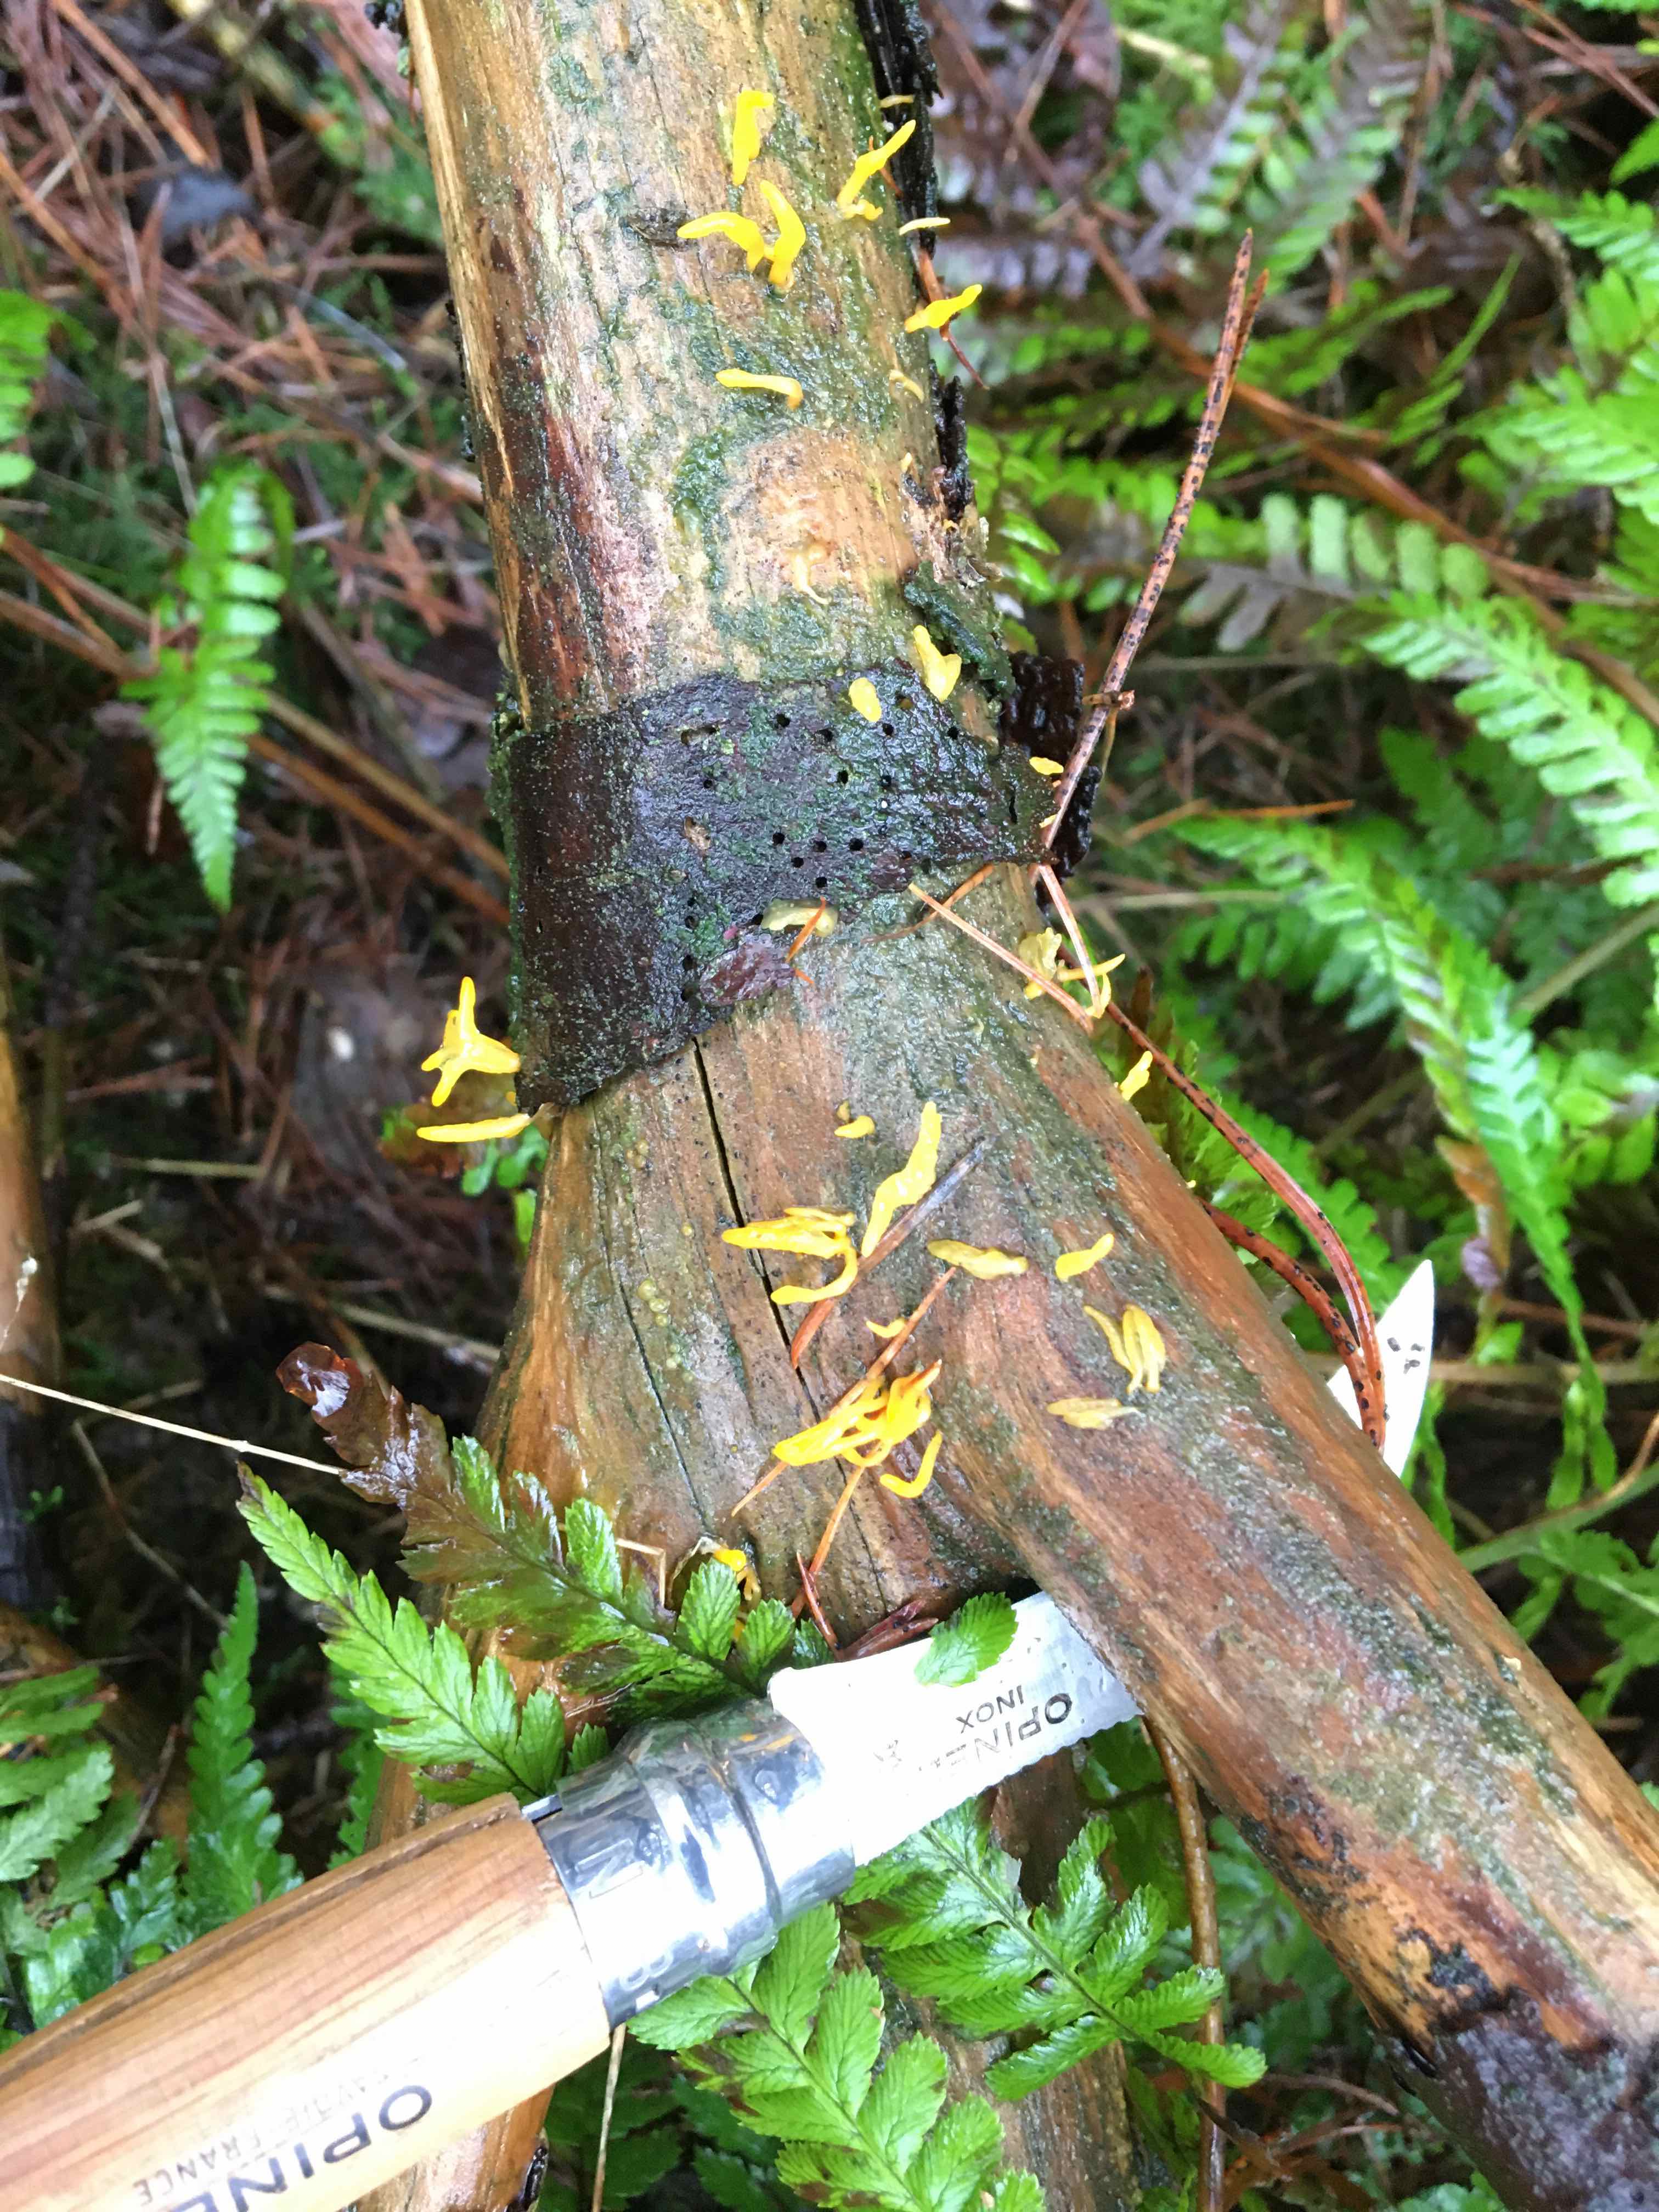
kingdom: Fungi
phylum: Basidiomycota
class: Dacrymycetes
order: Dacrymycetales
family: Dacrymycetaceae
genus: Calocera
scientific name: Calocera furcata
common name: fyrre-guldgaffel
